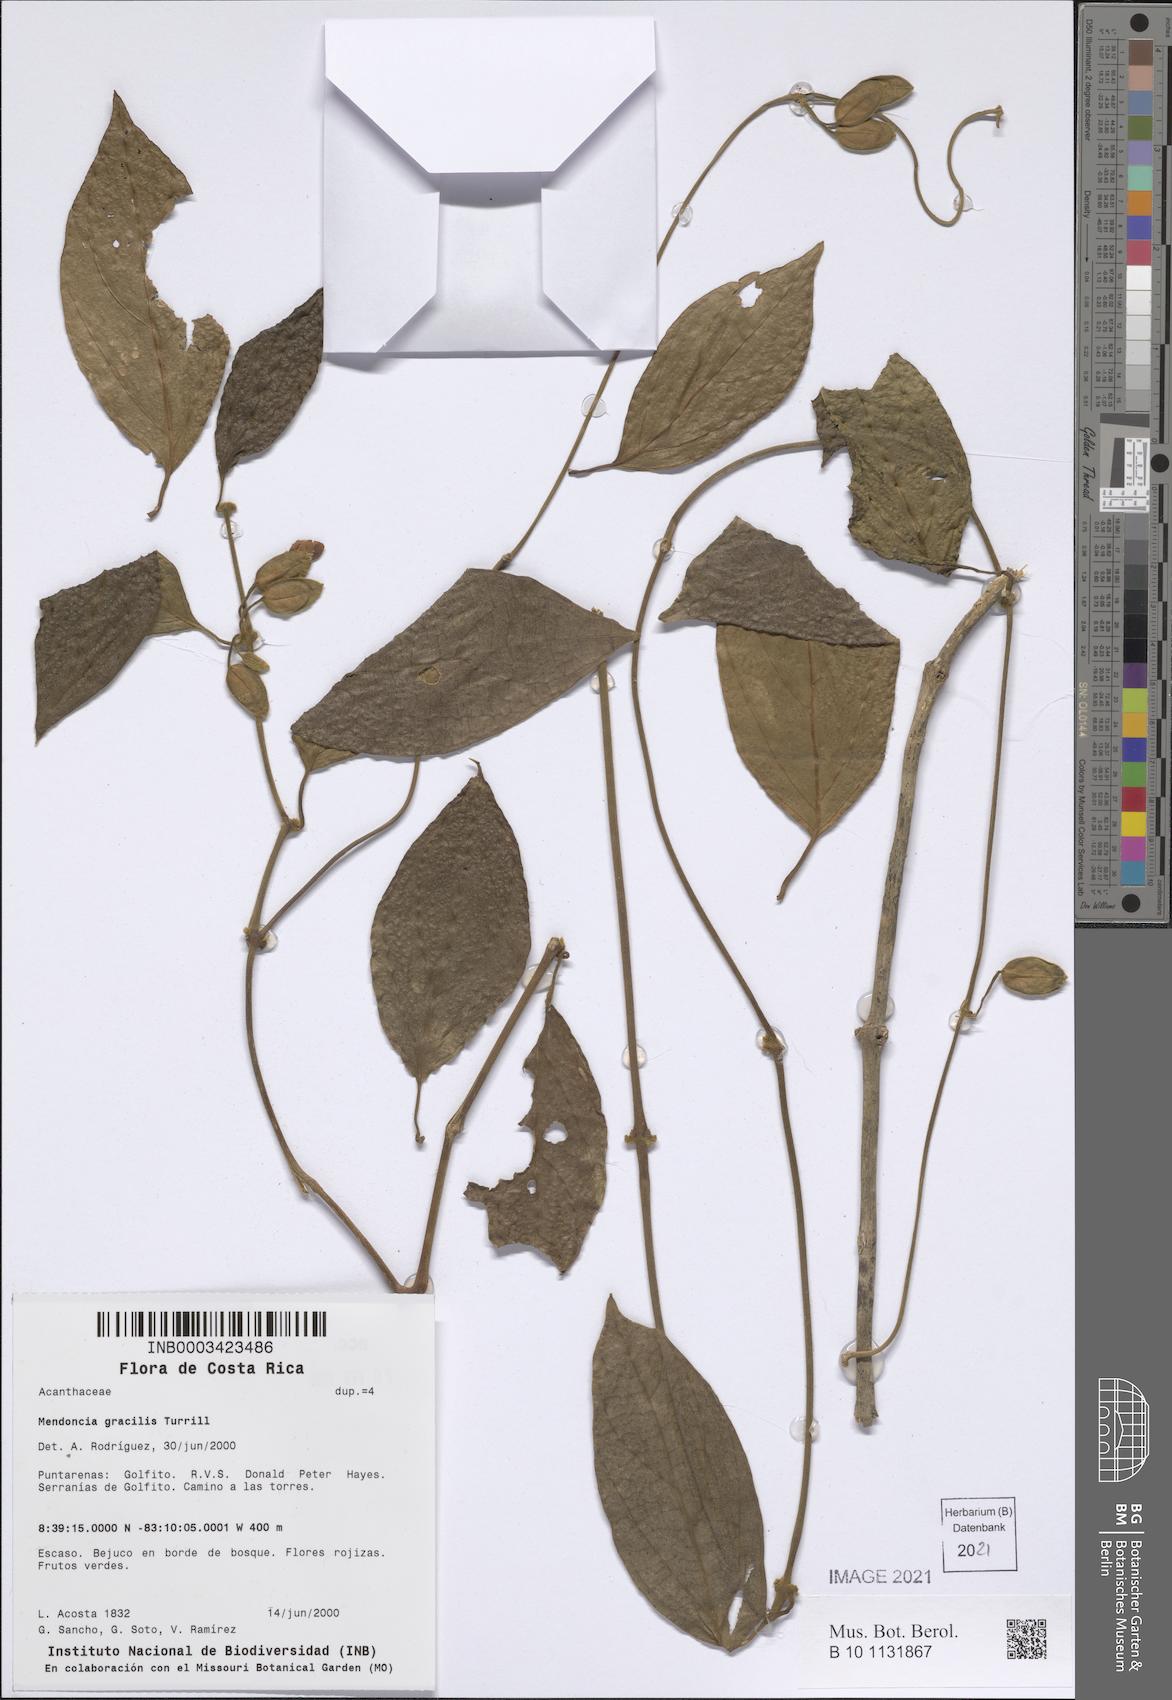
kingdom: Plantae
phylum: Tracheophyta
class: Magnoliopsida
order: Lamiales
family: Acanthaceae
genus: Mendoncia
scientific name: Mendoncia gracilis
